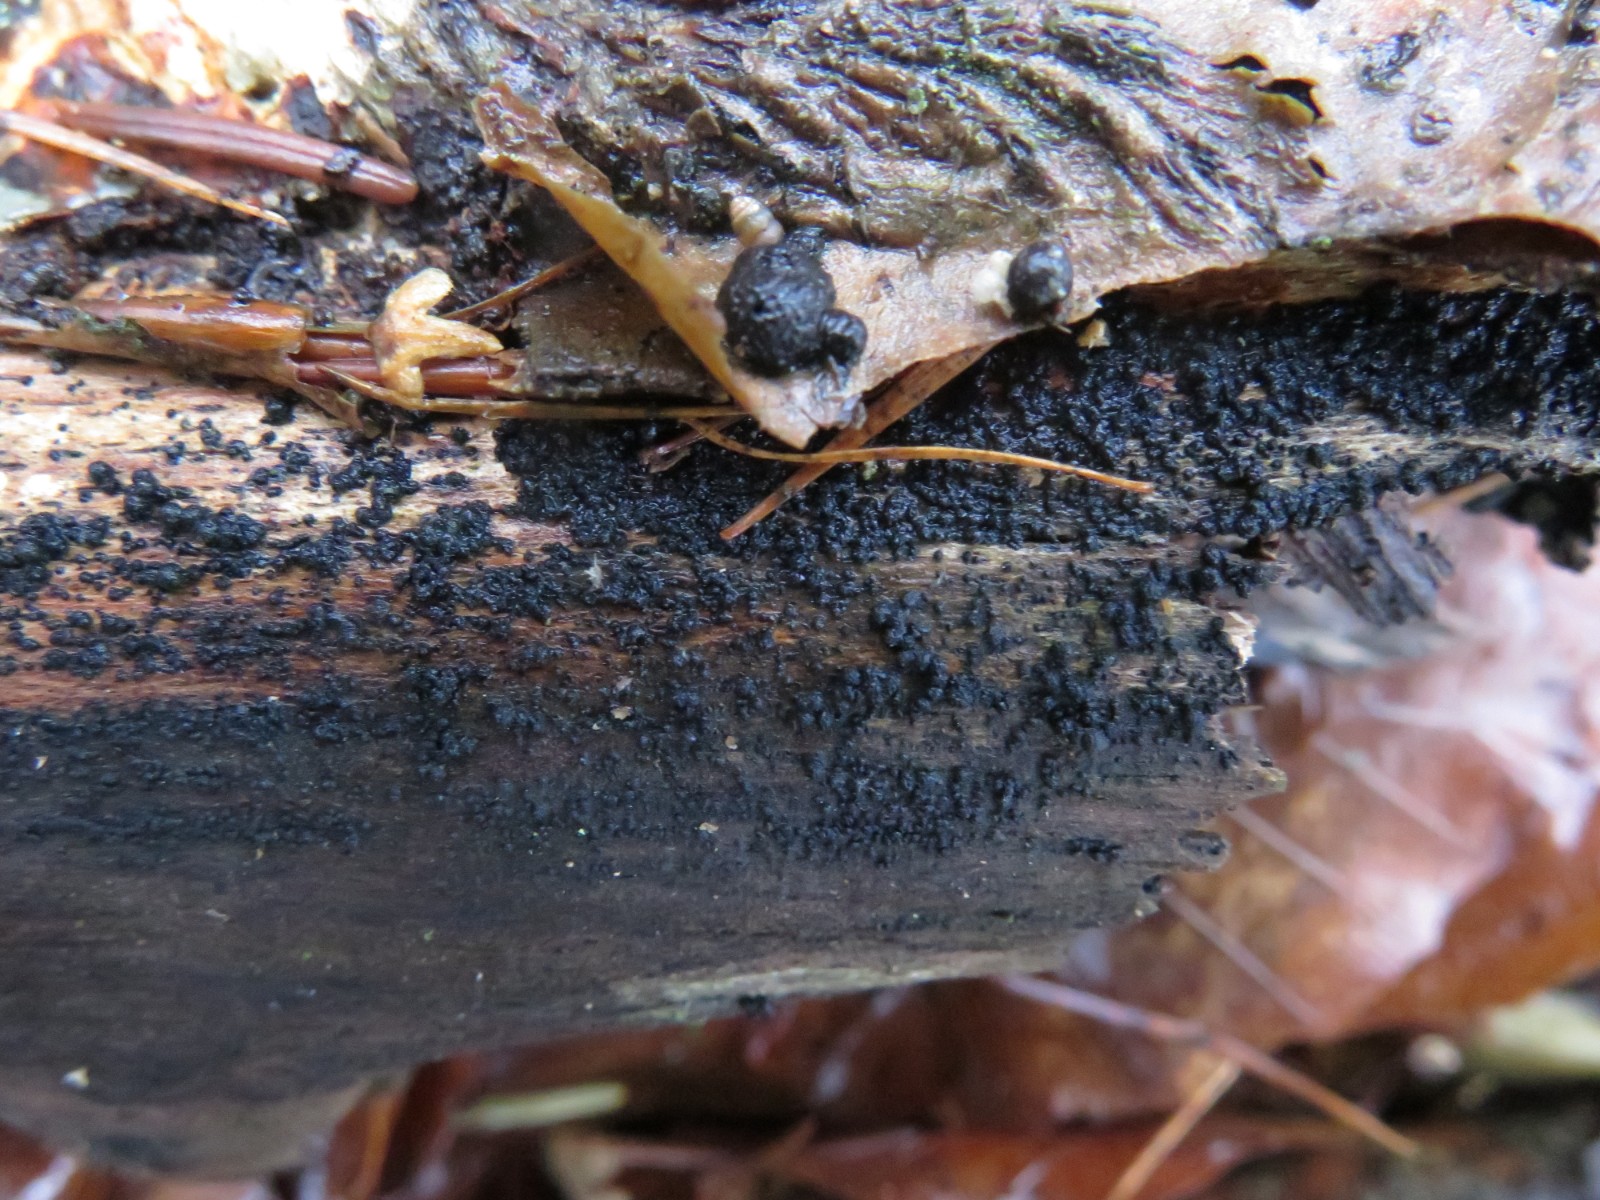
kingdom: Fungi
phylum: Ascomycota
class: Sordariomycetes
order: Coronophorales
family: Bertiaceae
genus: Bertia
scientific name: Bertia moriformis
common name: almindelig morbærkerne
